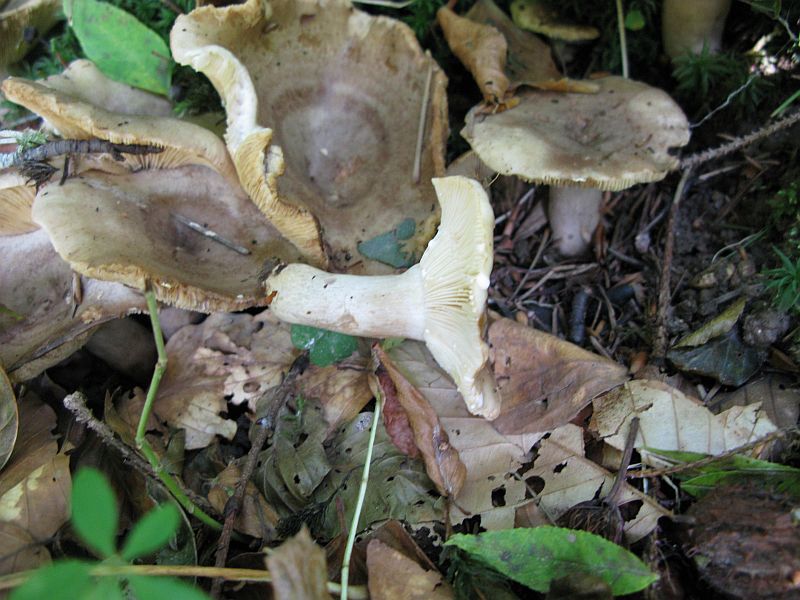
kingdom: Fungi
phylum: Basidiomycota
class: Agaricomycetes
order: Russulales
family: Russulaceae
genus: Lactarius
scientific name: Lactarius fluens
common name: lysrandet mælkehat
